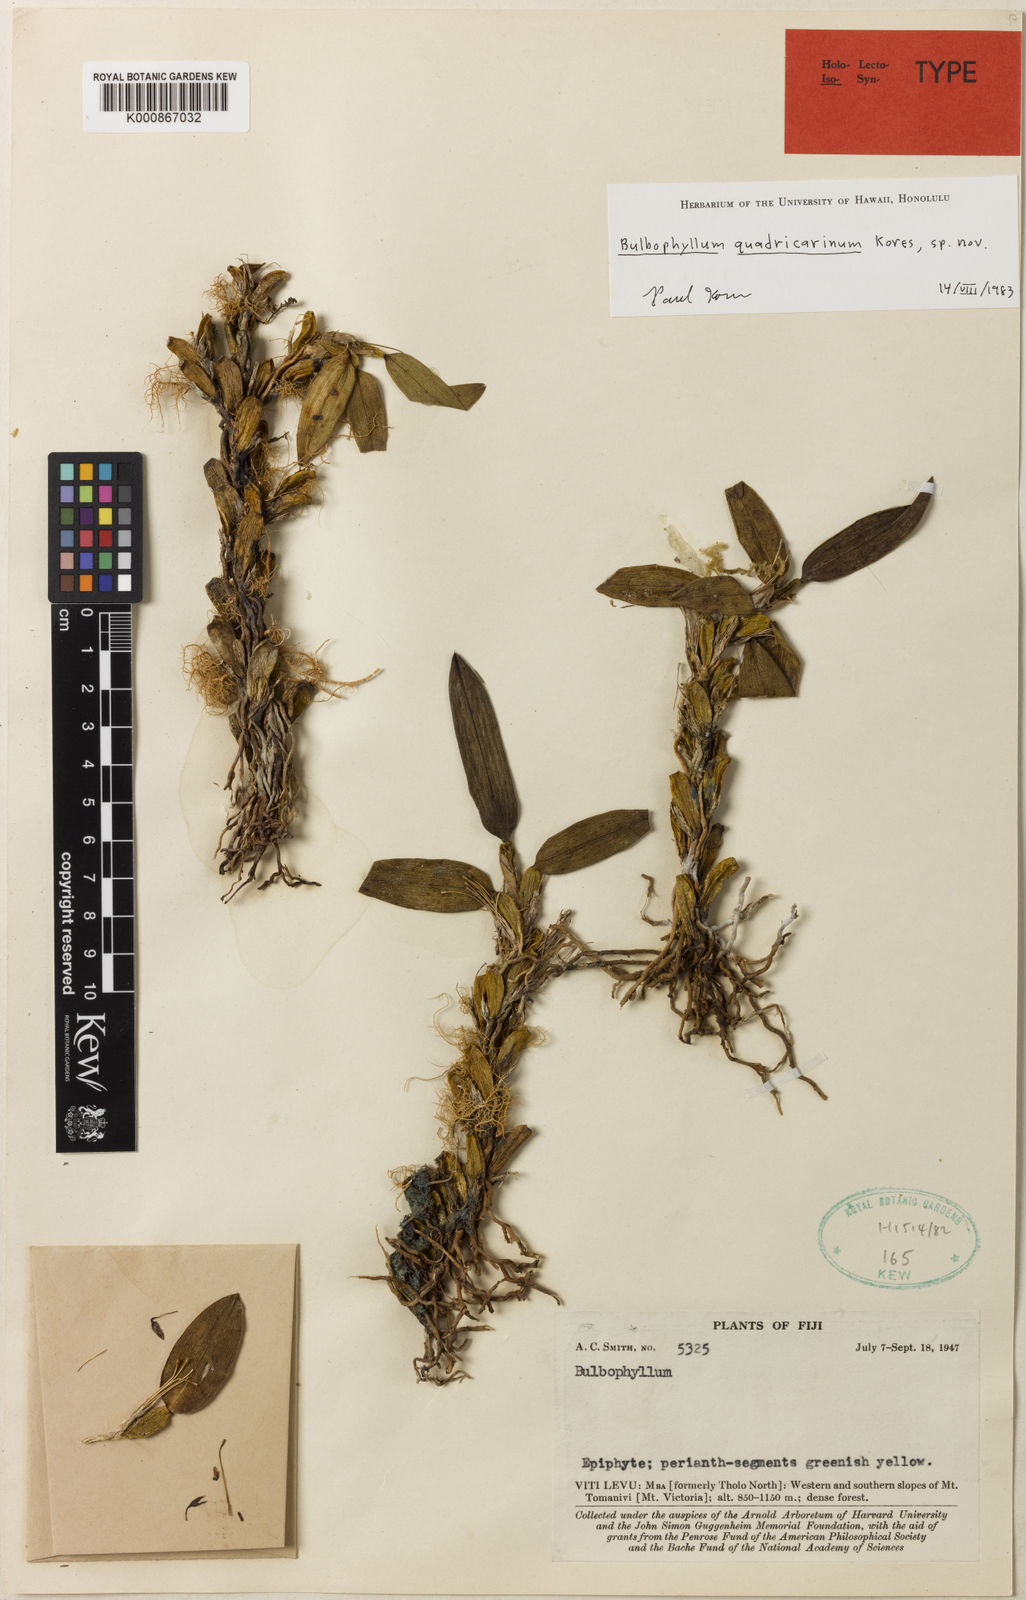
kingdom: Plantae
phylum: Tracheophyta
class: Liliopsida
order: Asparagales
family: Orchidaceae
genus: Bulbophyllum
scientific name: Bulbophyllum quadricarinum
